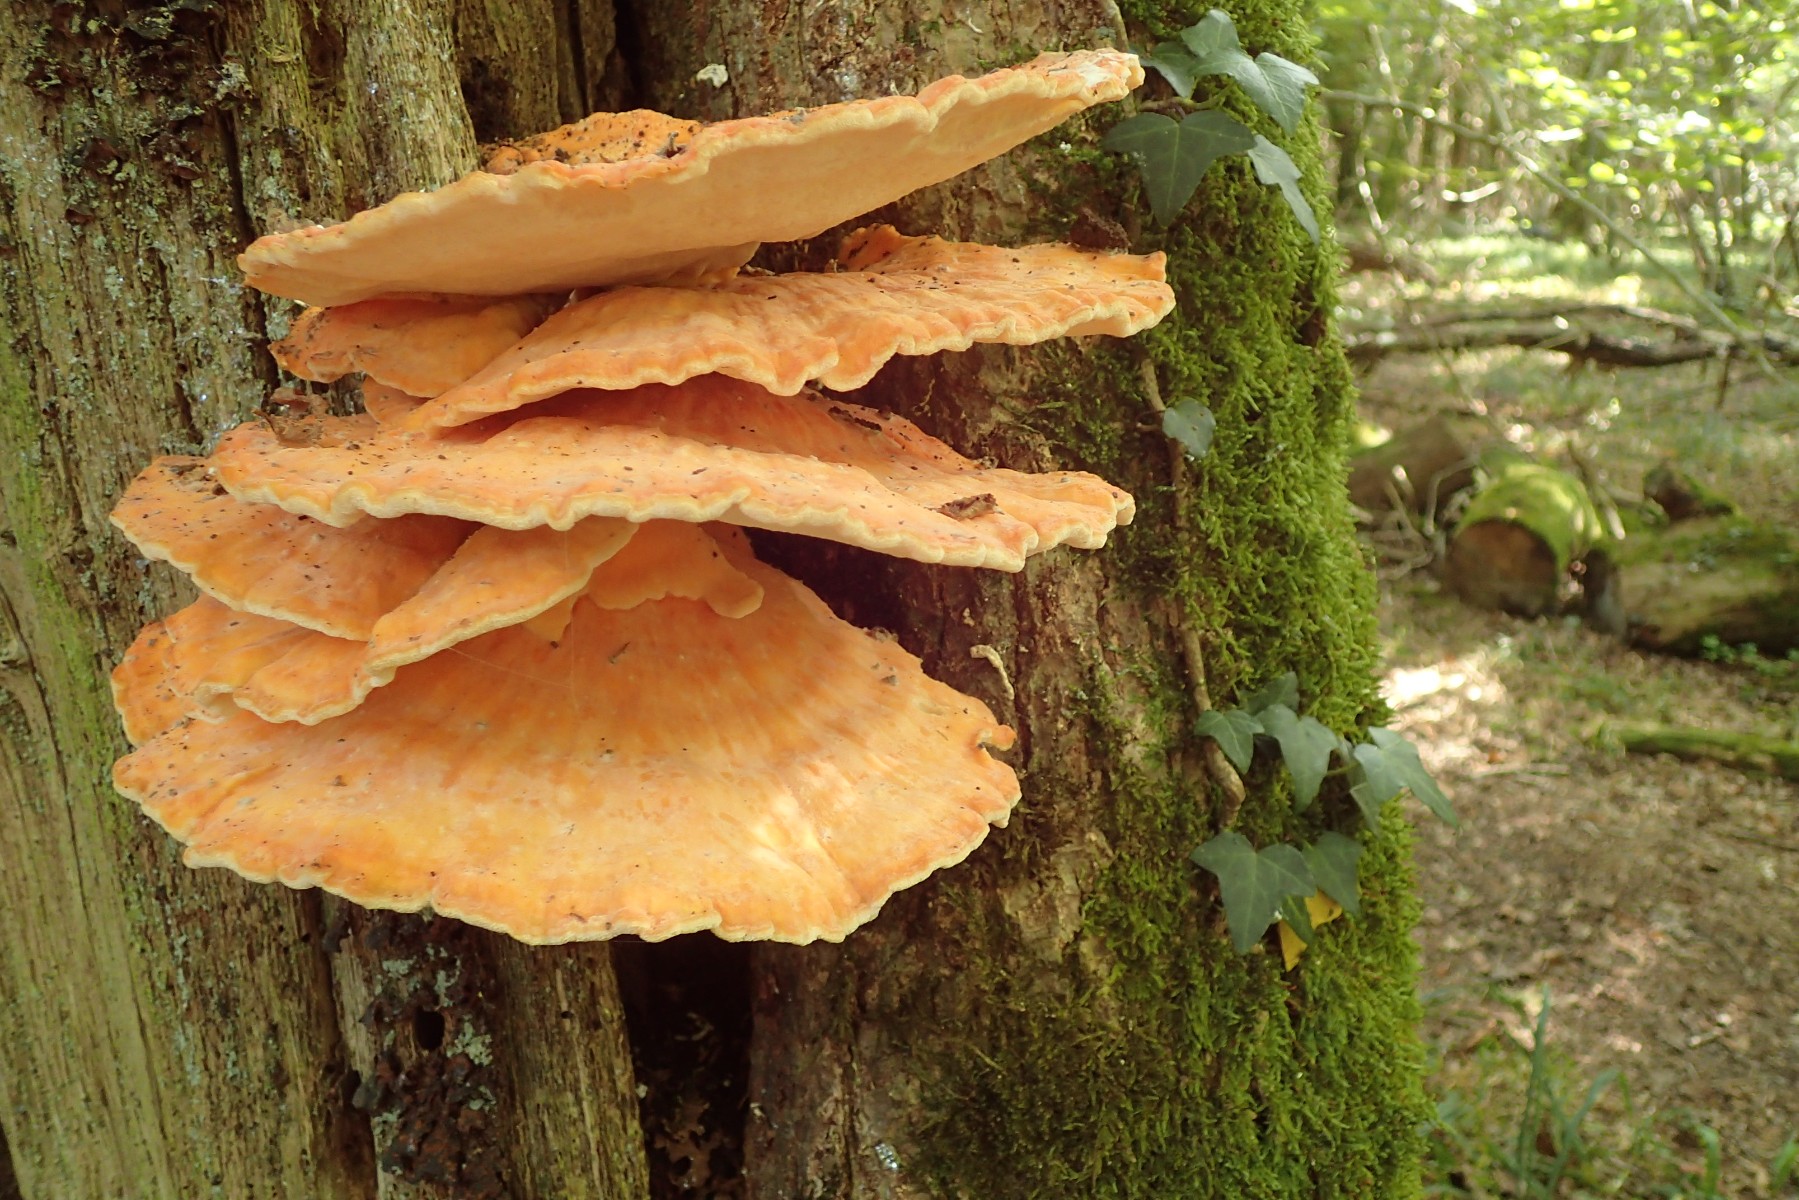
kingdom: Fungi
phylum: Basidiomycota
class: Agaricomycetes
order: Polyporales
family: Laetiporaceae
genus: Laetiporus
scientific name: Laetiporus sulphureus
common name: svovlporesvamp
